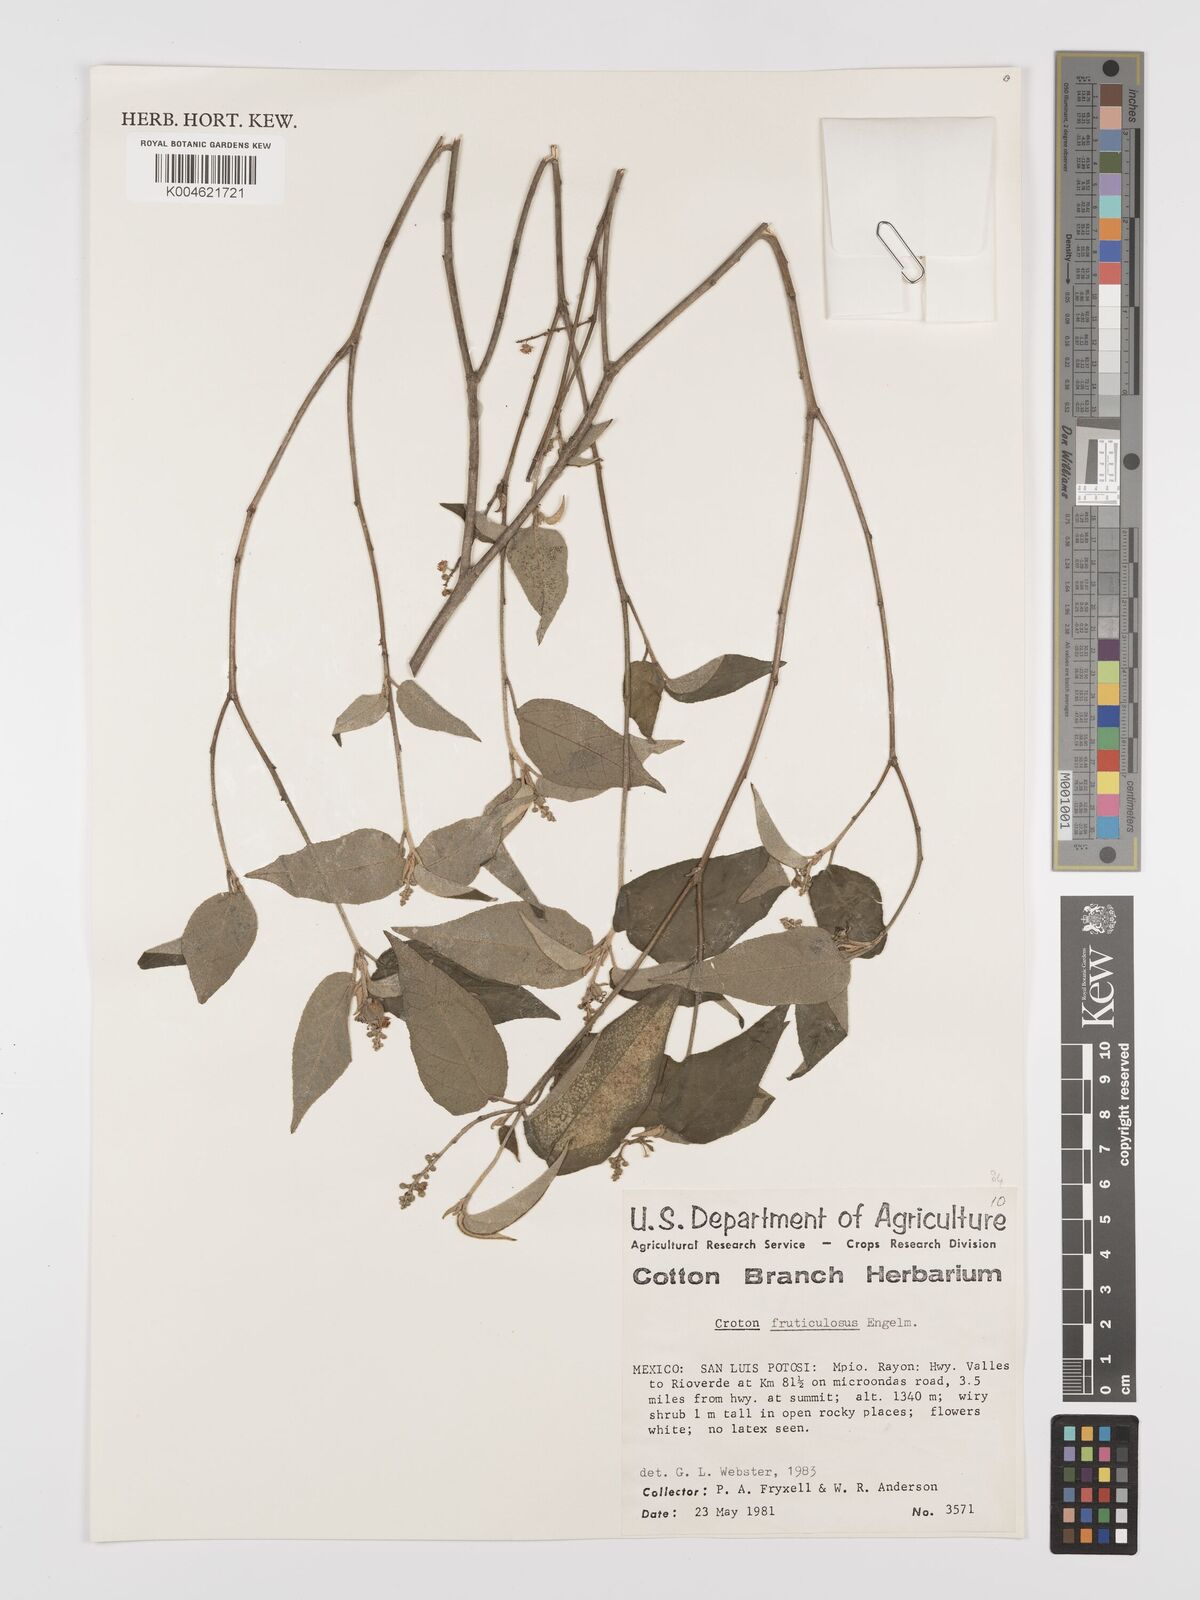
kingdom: Plantae
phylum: Tracheophyta
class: Magnoliopsida
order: Malpighiales
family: Euphorbiaceae
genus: Croton
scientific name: Croton fruticulosus
